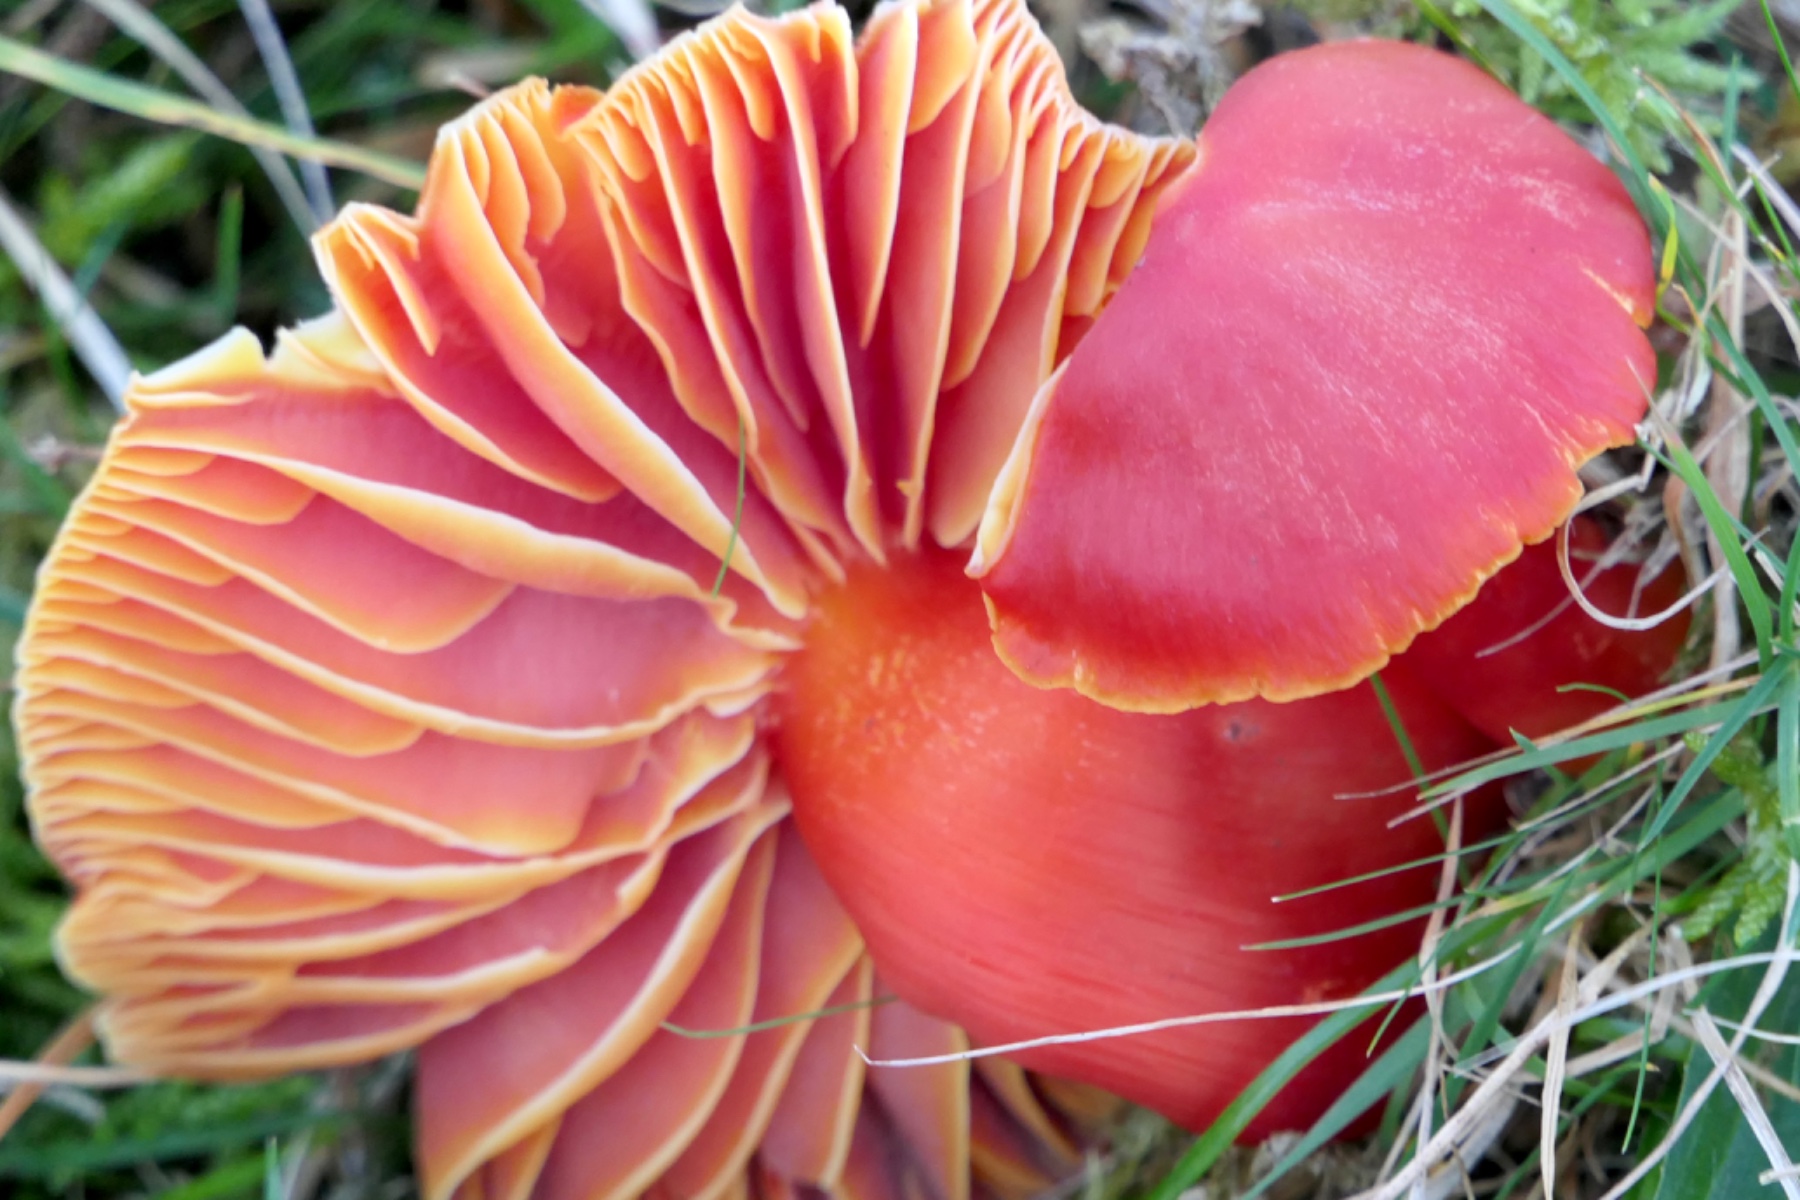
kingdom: Fungi
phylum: Basidiomycota
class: Agaricomycetes
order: Agaricales
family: Hygrophoraceae
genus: Hygrocybe
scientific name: Hygrocybe splendidissima
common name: knaldrød vokshat
